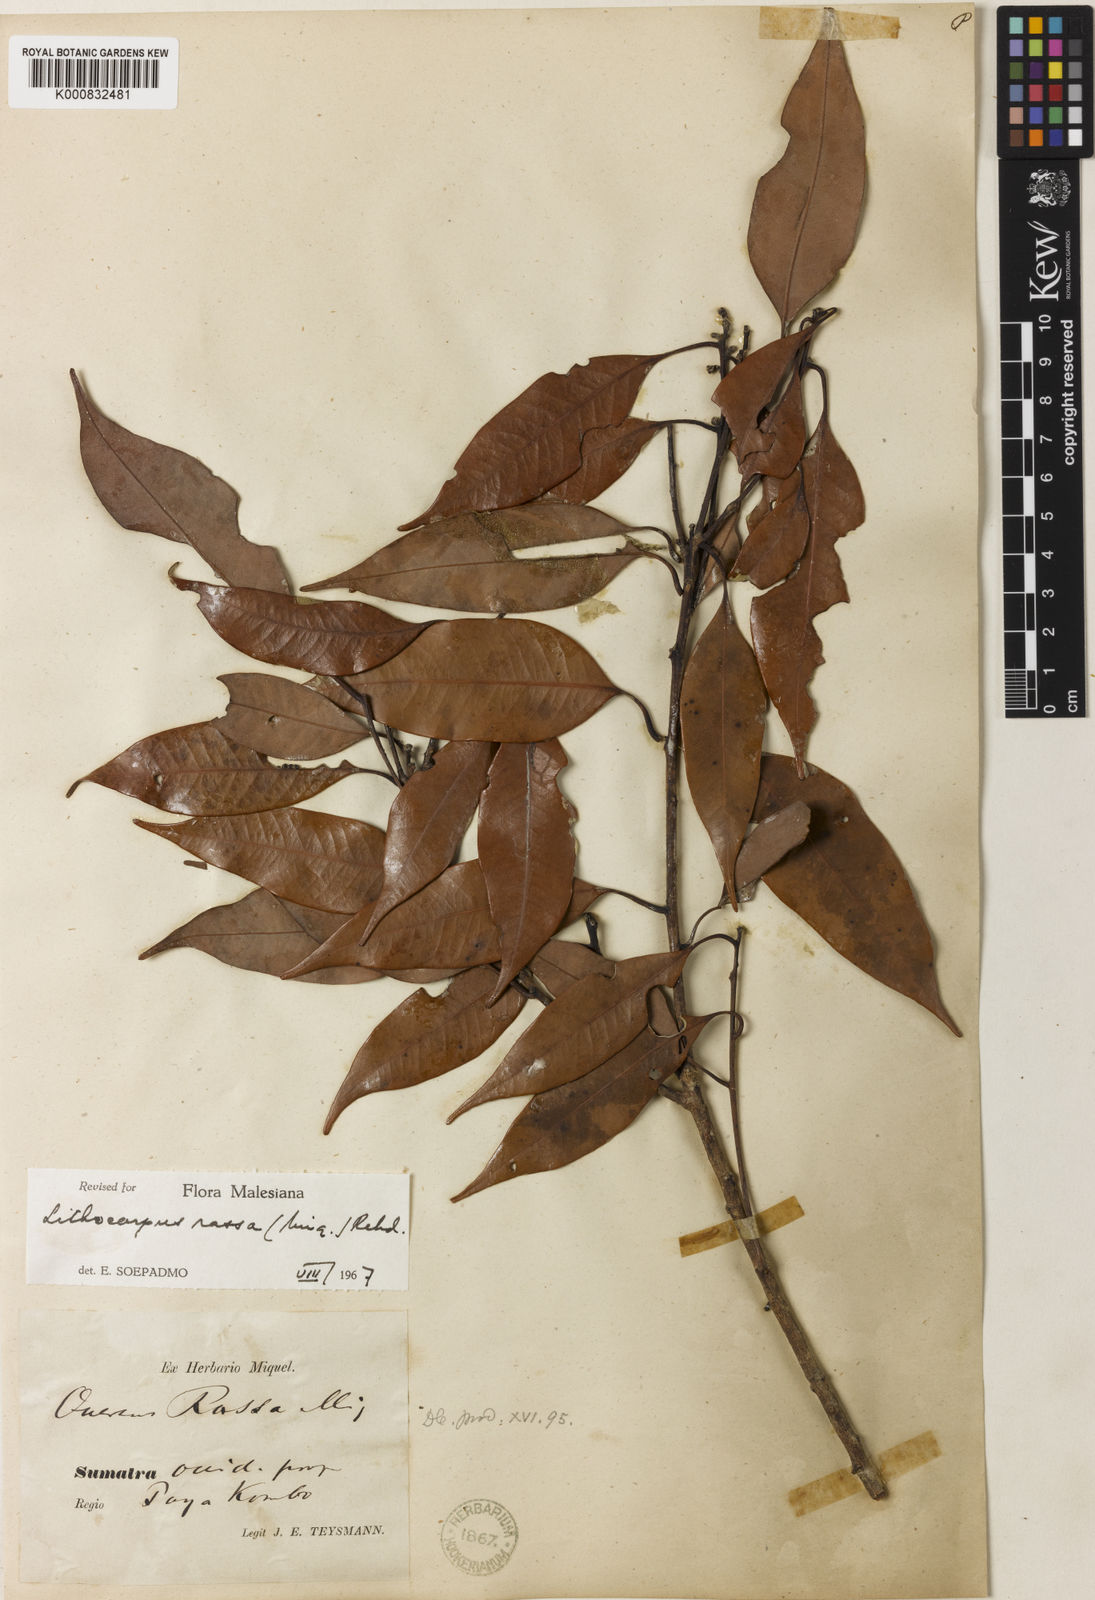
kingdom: Plantae
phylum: Tracheophyta
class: Magnoliopsida
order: Fagales
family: Fagaceae
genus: Lithocarpus
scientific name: Lithocarpus rassa
